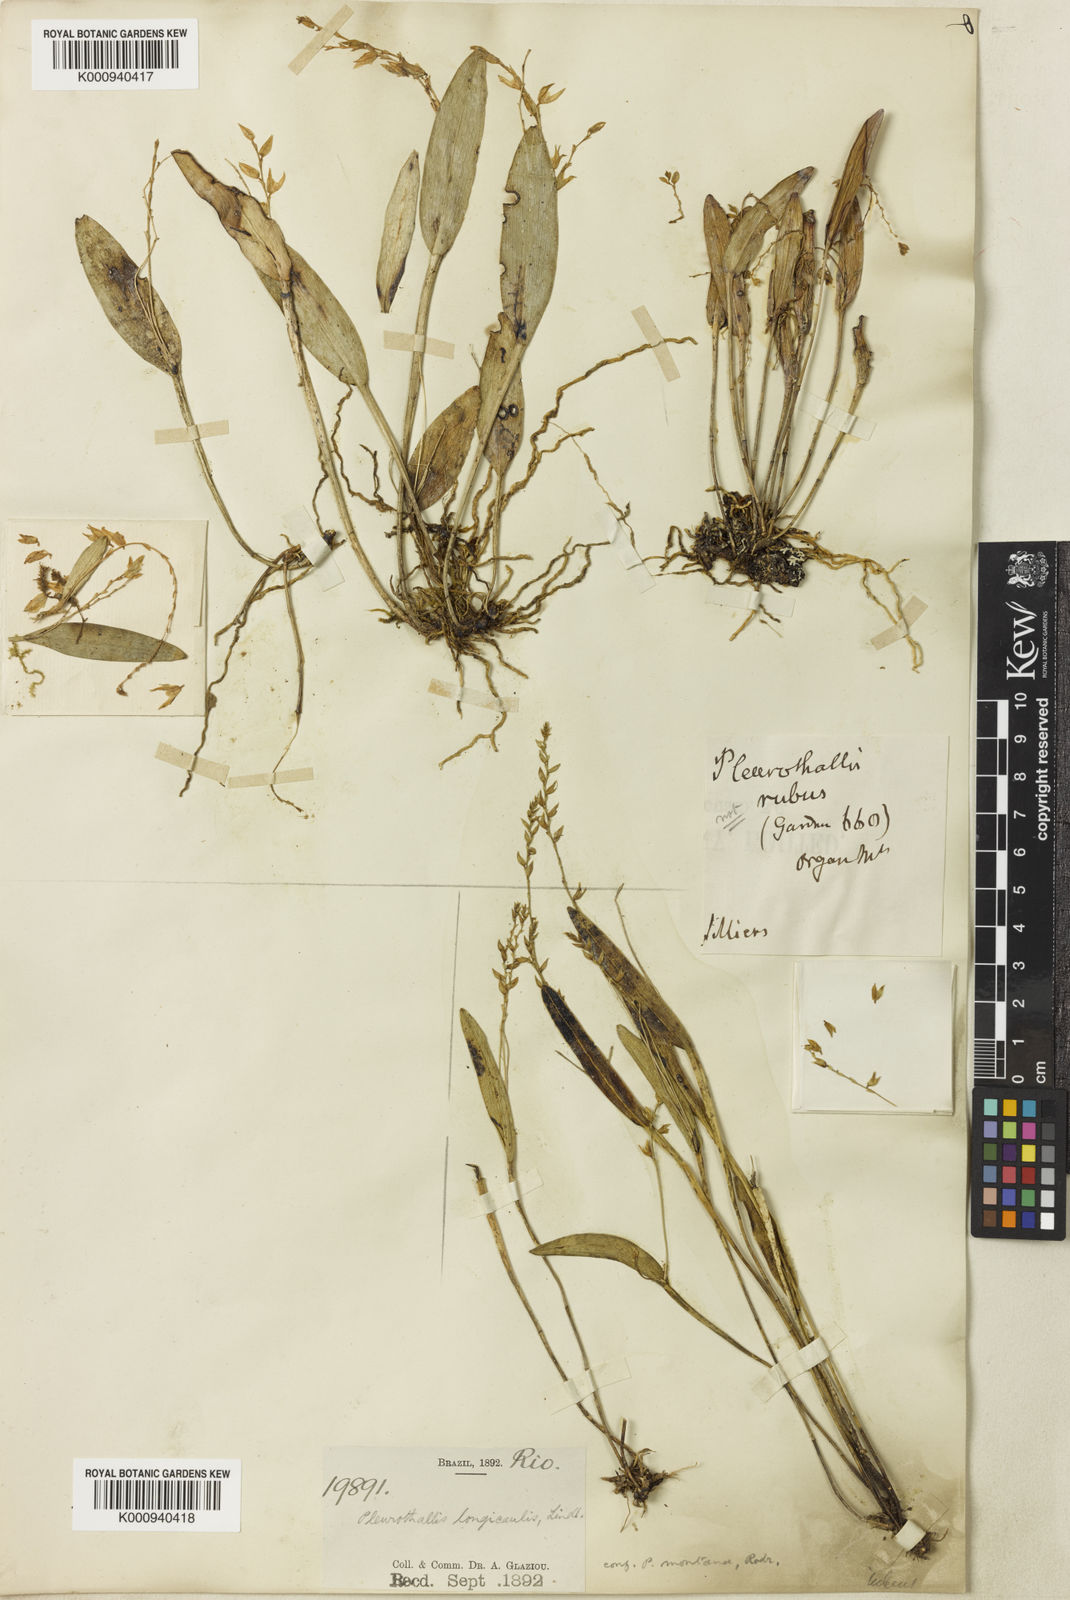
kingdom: Plantae
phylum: Tracheophyta
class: Liliopsida
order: Asparagales
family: Orchidaceae
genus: Acianthera
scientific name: Acianthera capillaris
